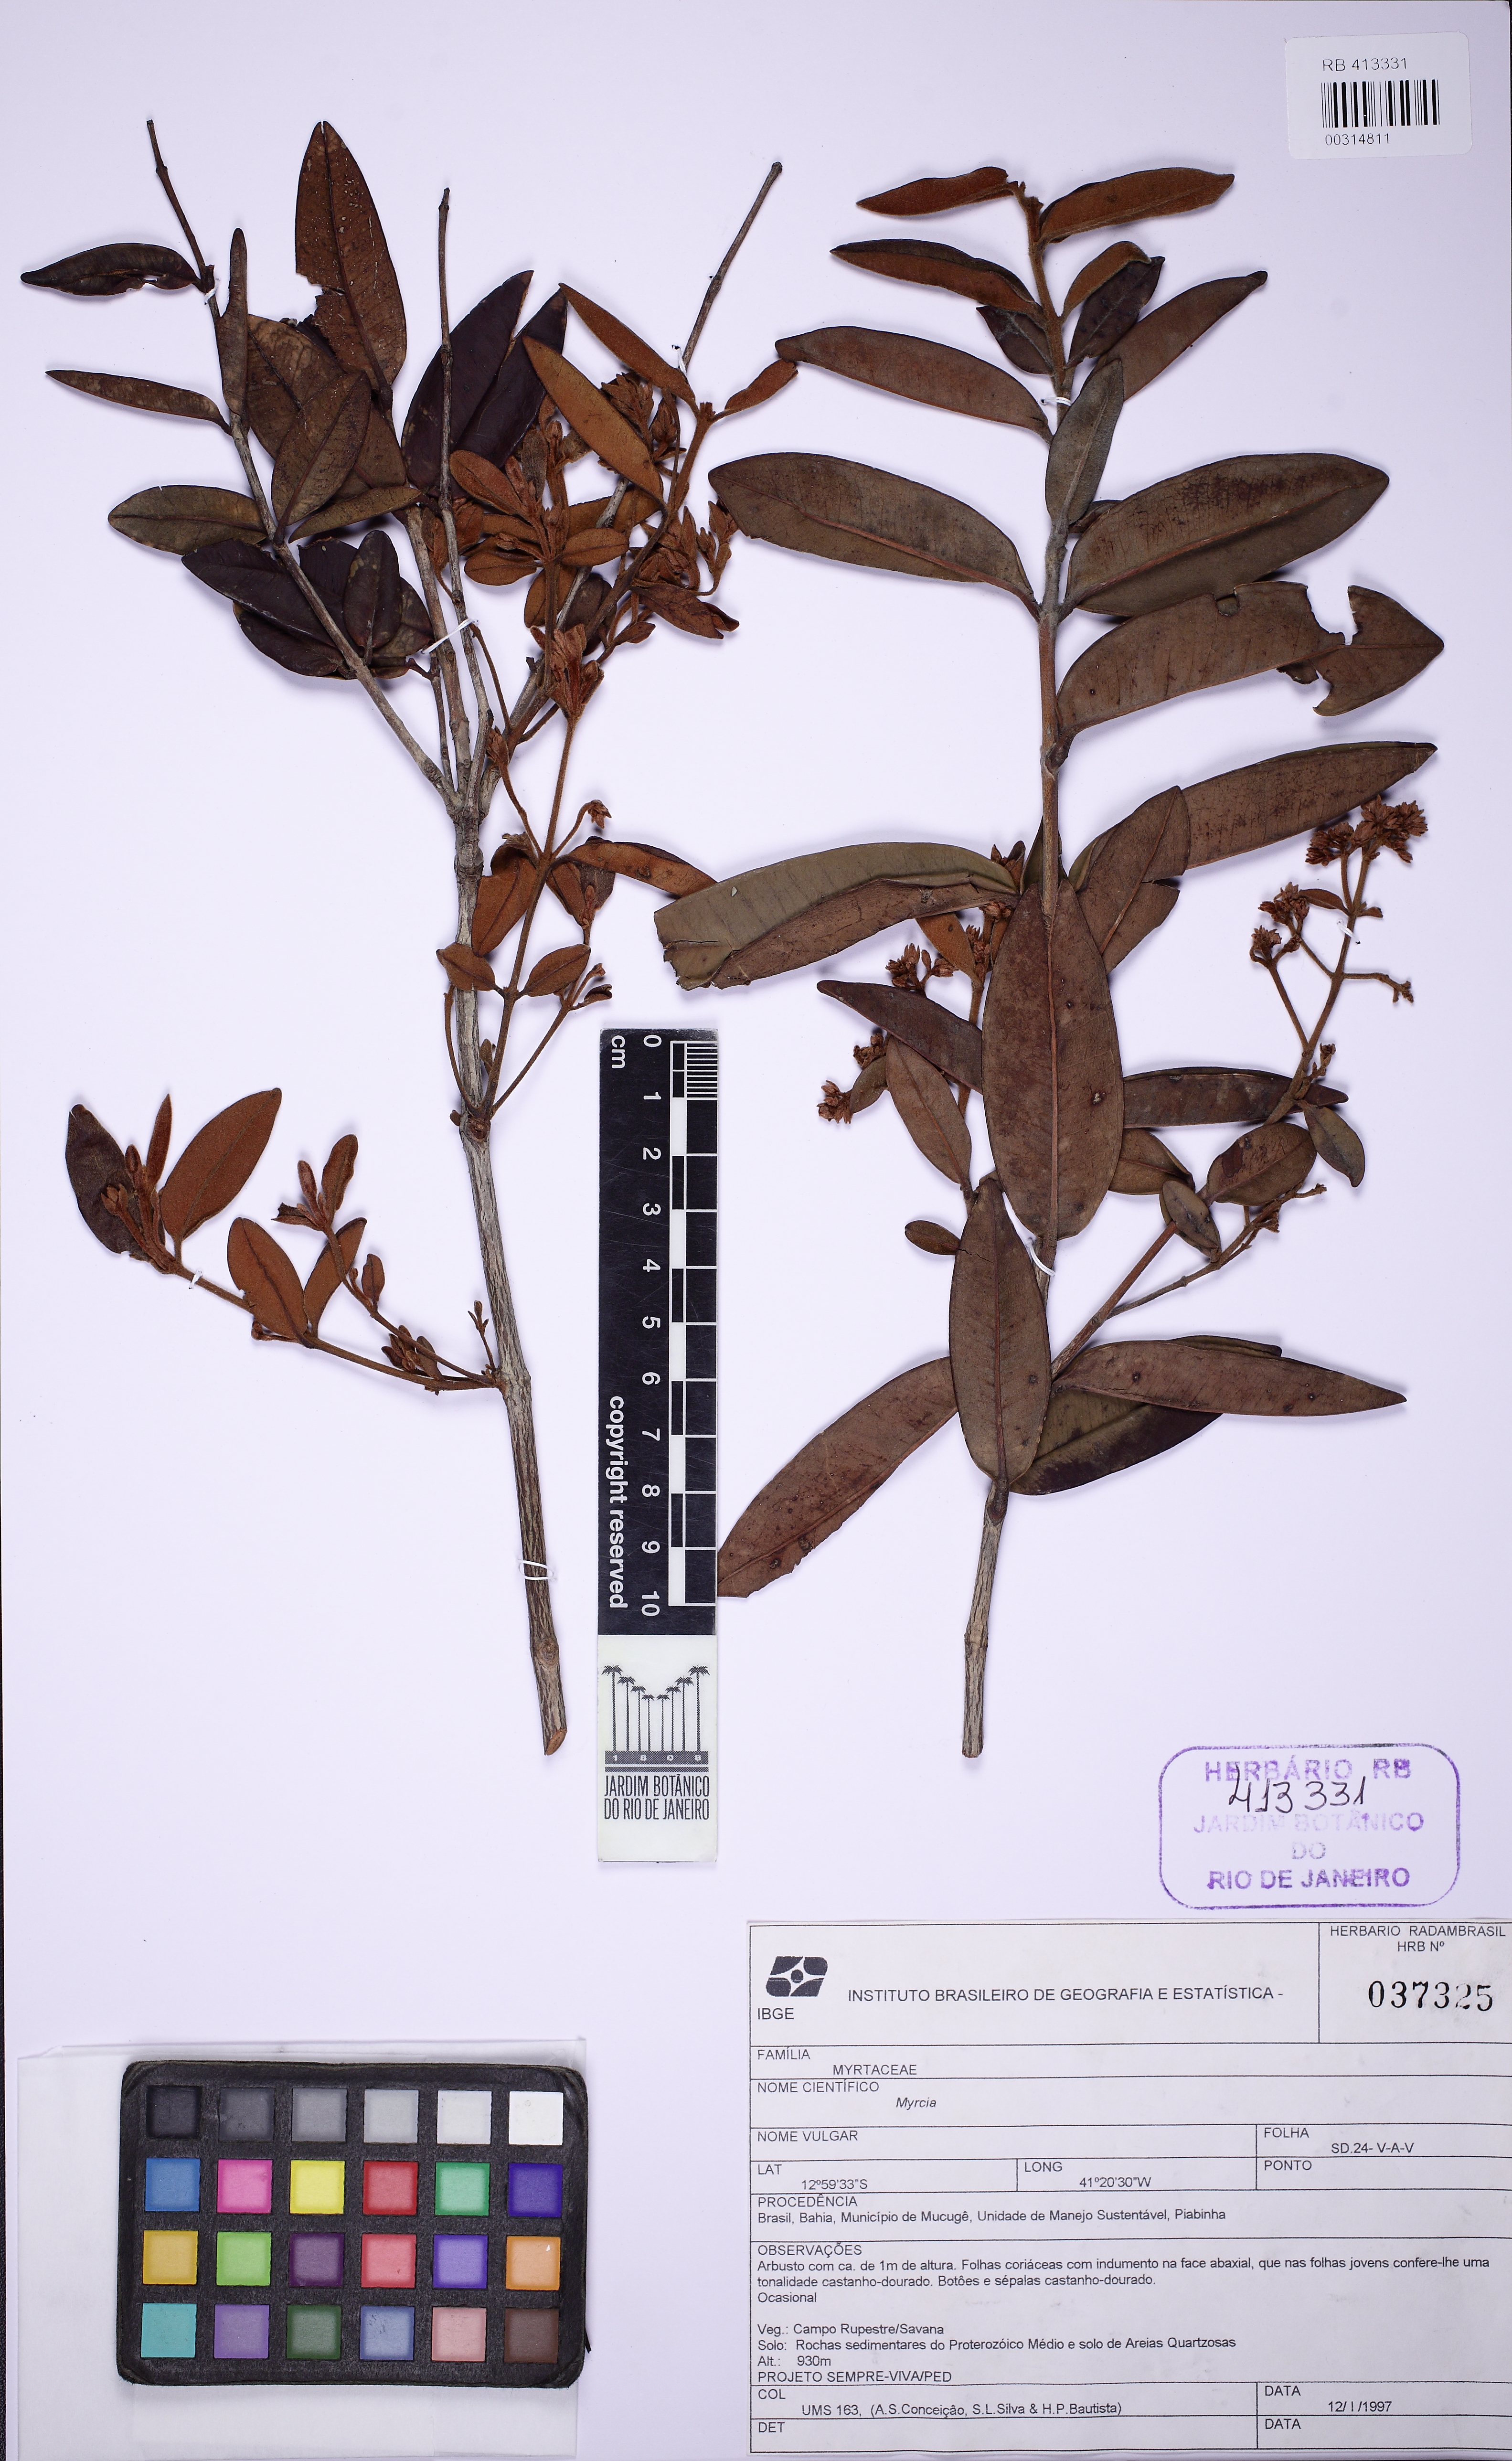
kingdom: Plantae
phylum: Tracheophyta
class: Magnoliopsida
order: Myrtales
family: Myrtaceae
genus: Myrcia
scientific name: Myrcia virgata
